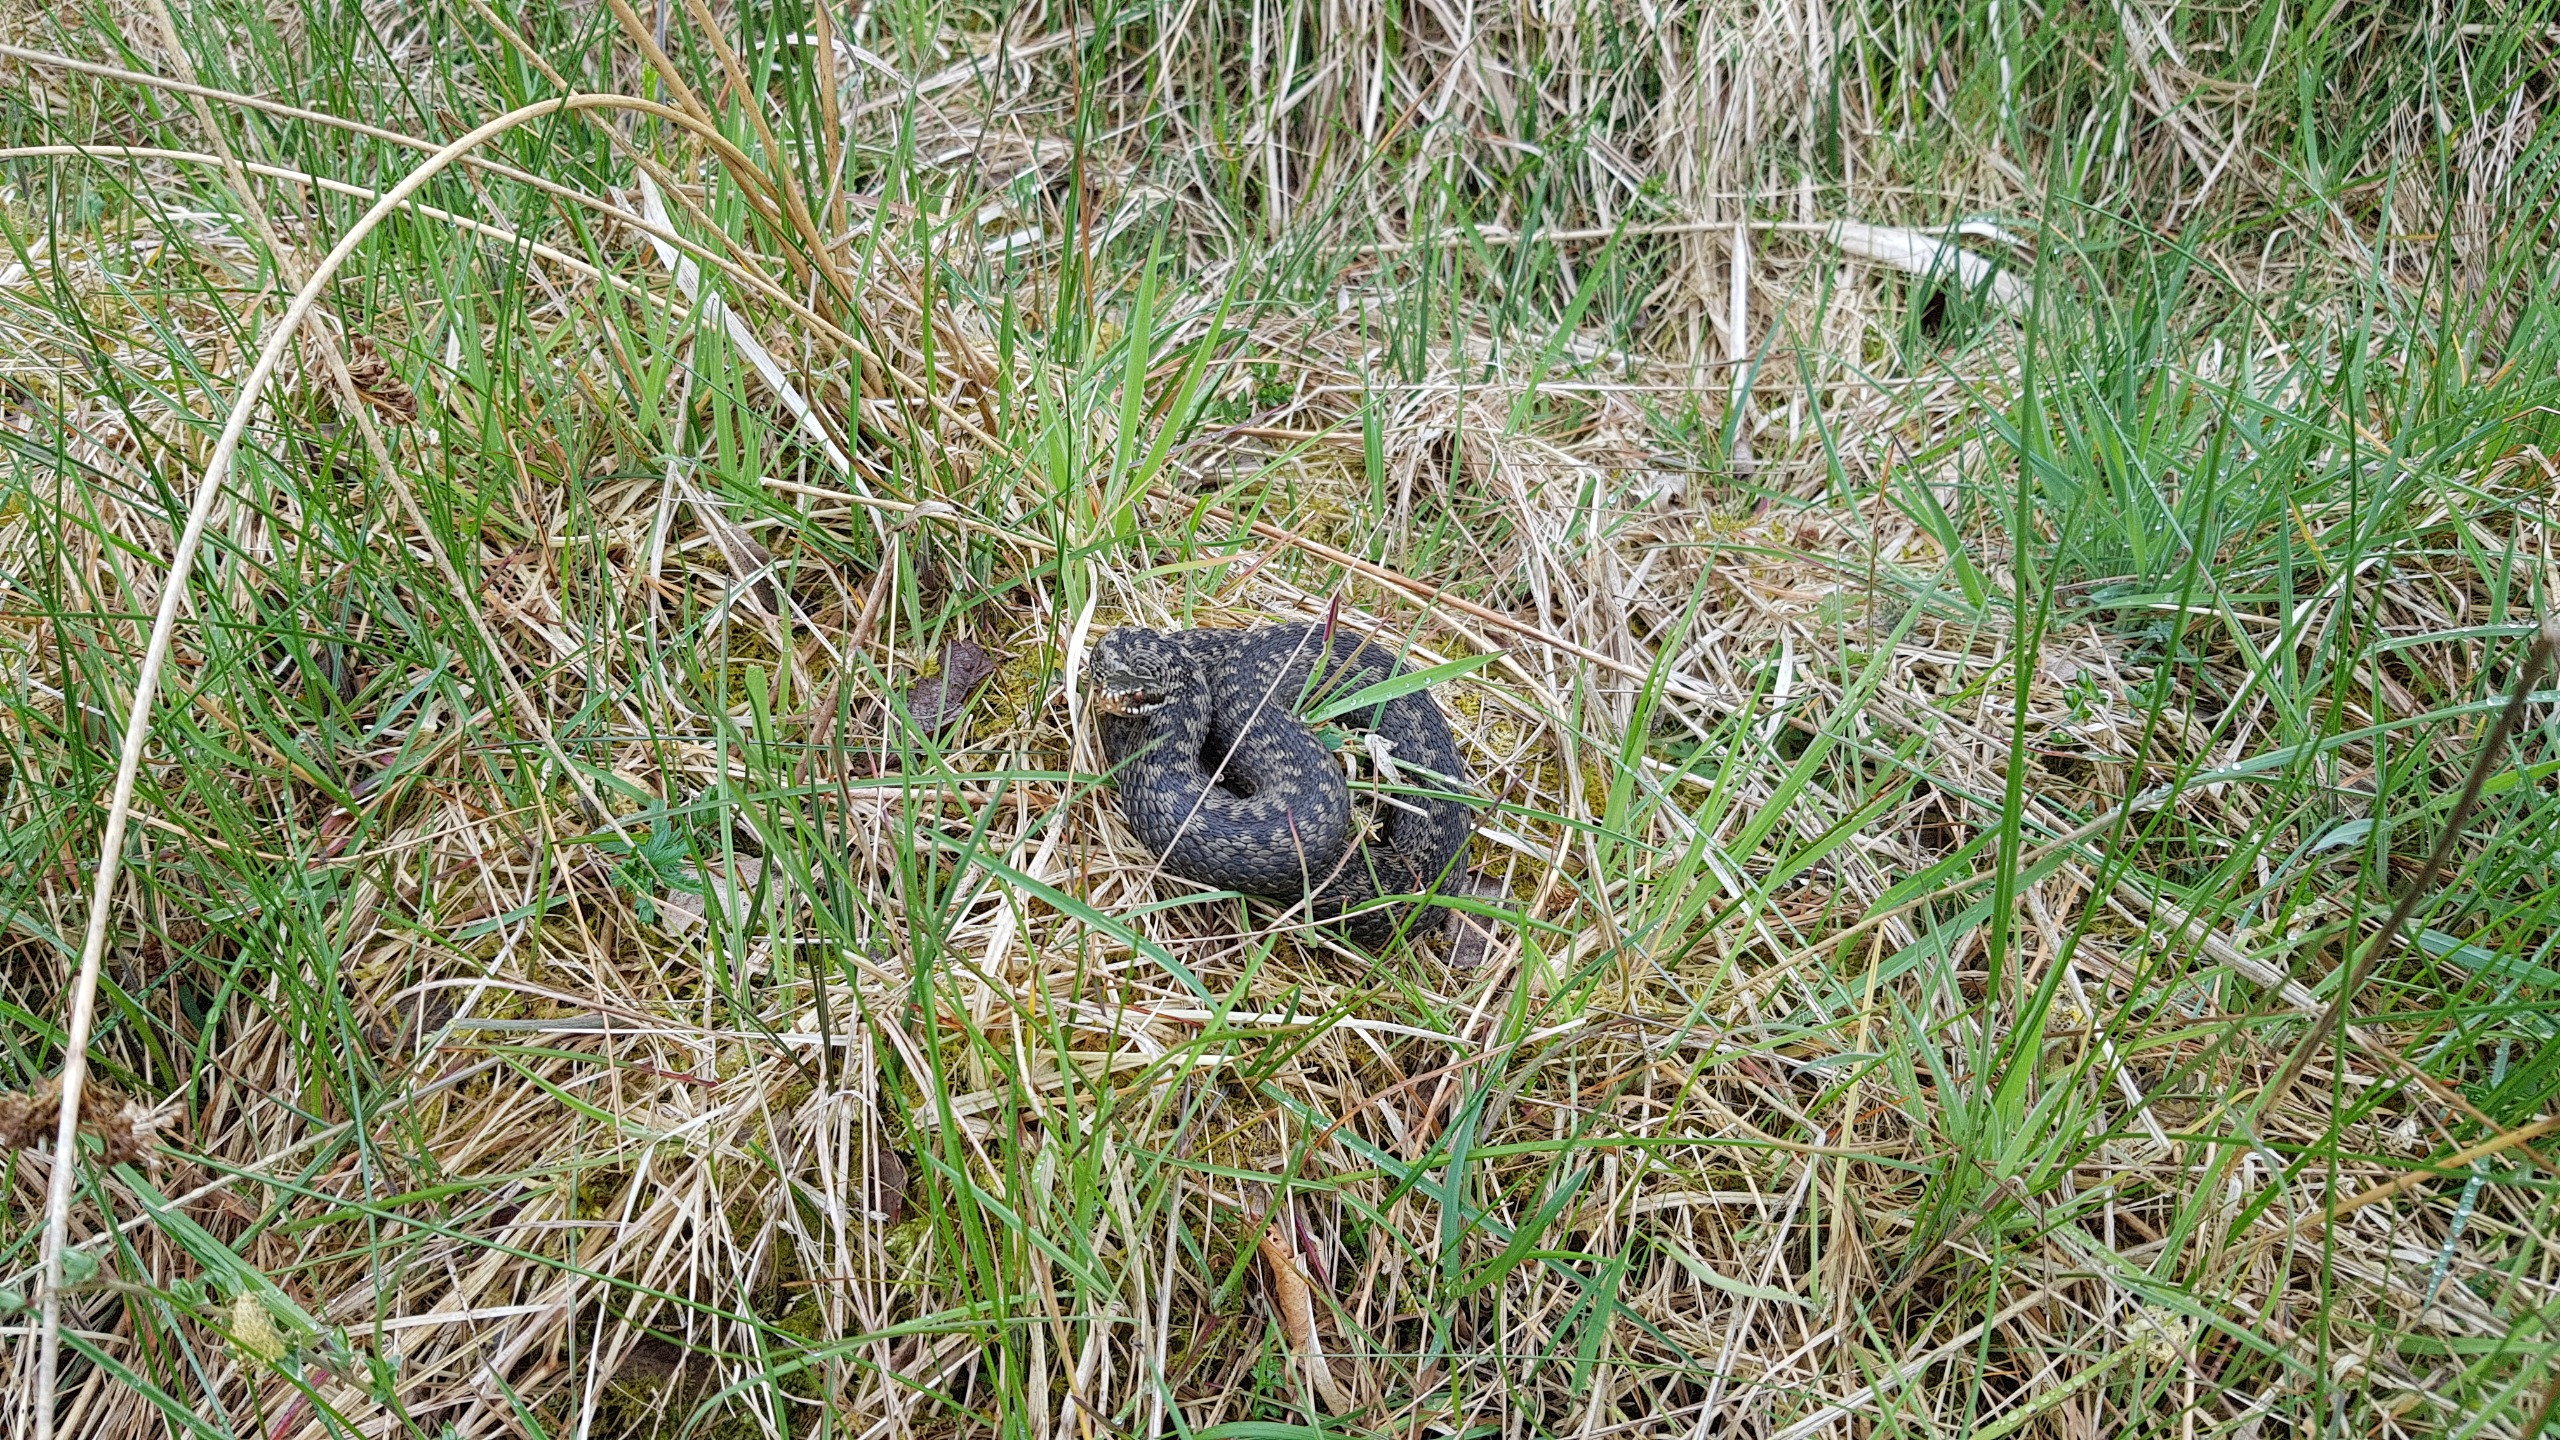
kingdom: Animalia
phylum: Chordata
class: Squamata
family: Viperidae
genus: Vipera
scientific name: Vipera berus
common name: Hugorm
